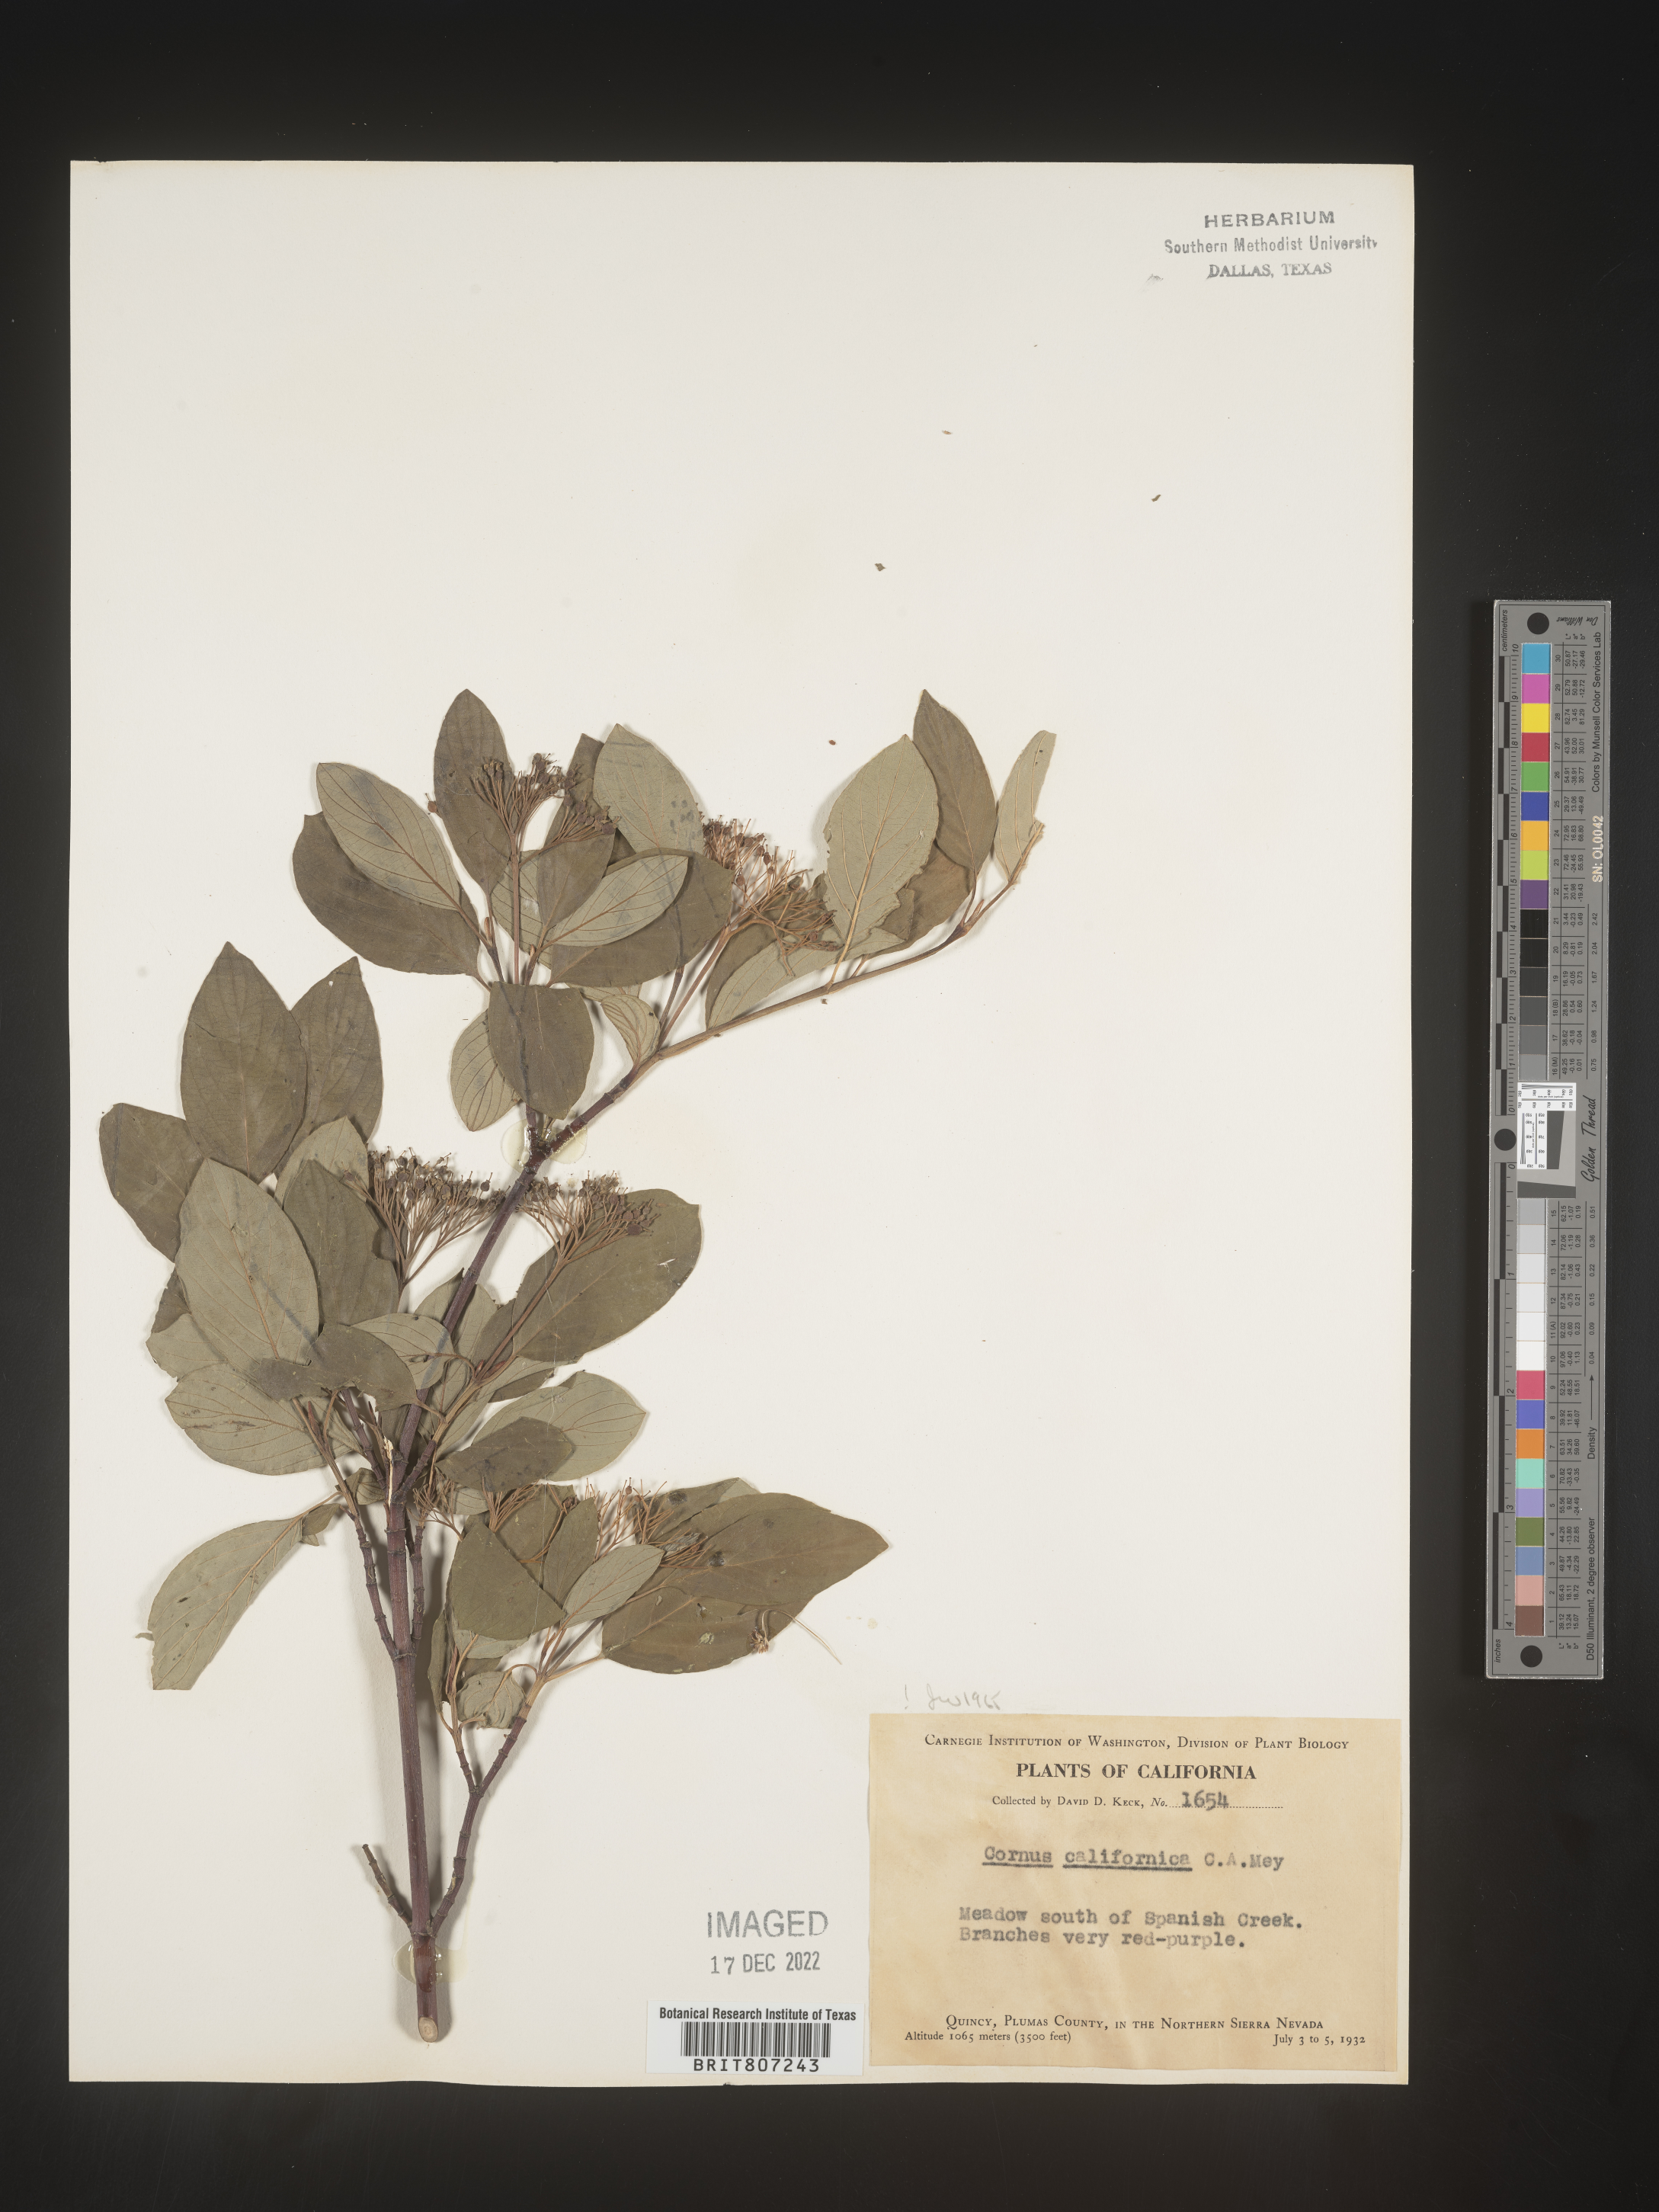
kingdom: Plantae
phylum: Tracheophyta
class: Magnoliopsida
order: Cornales
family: Cornaceae
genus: Cornus
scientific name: Cornus
